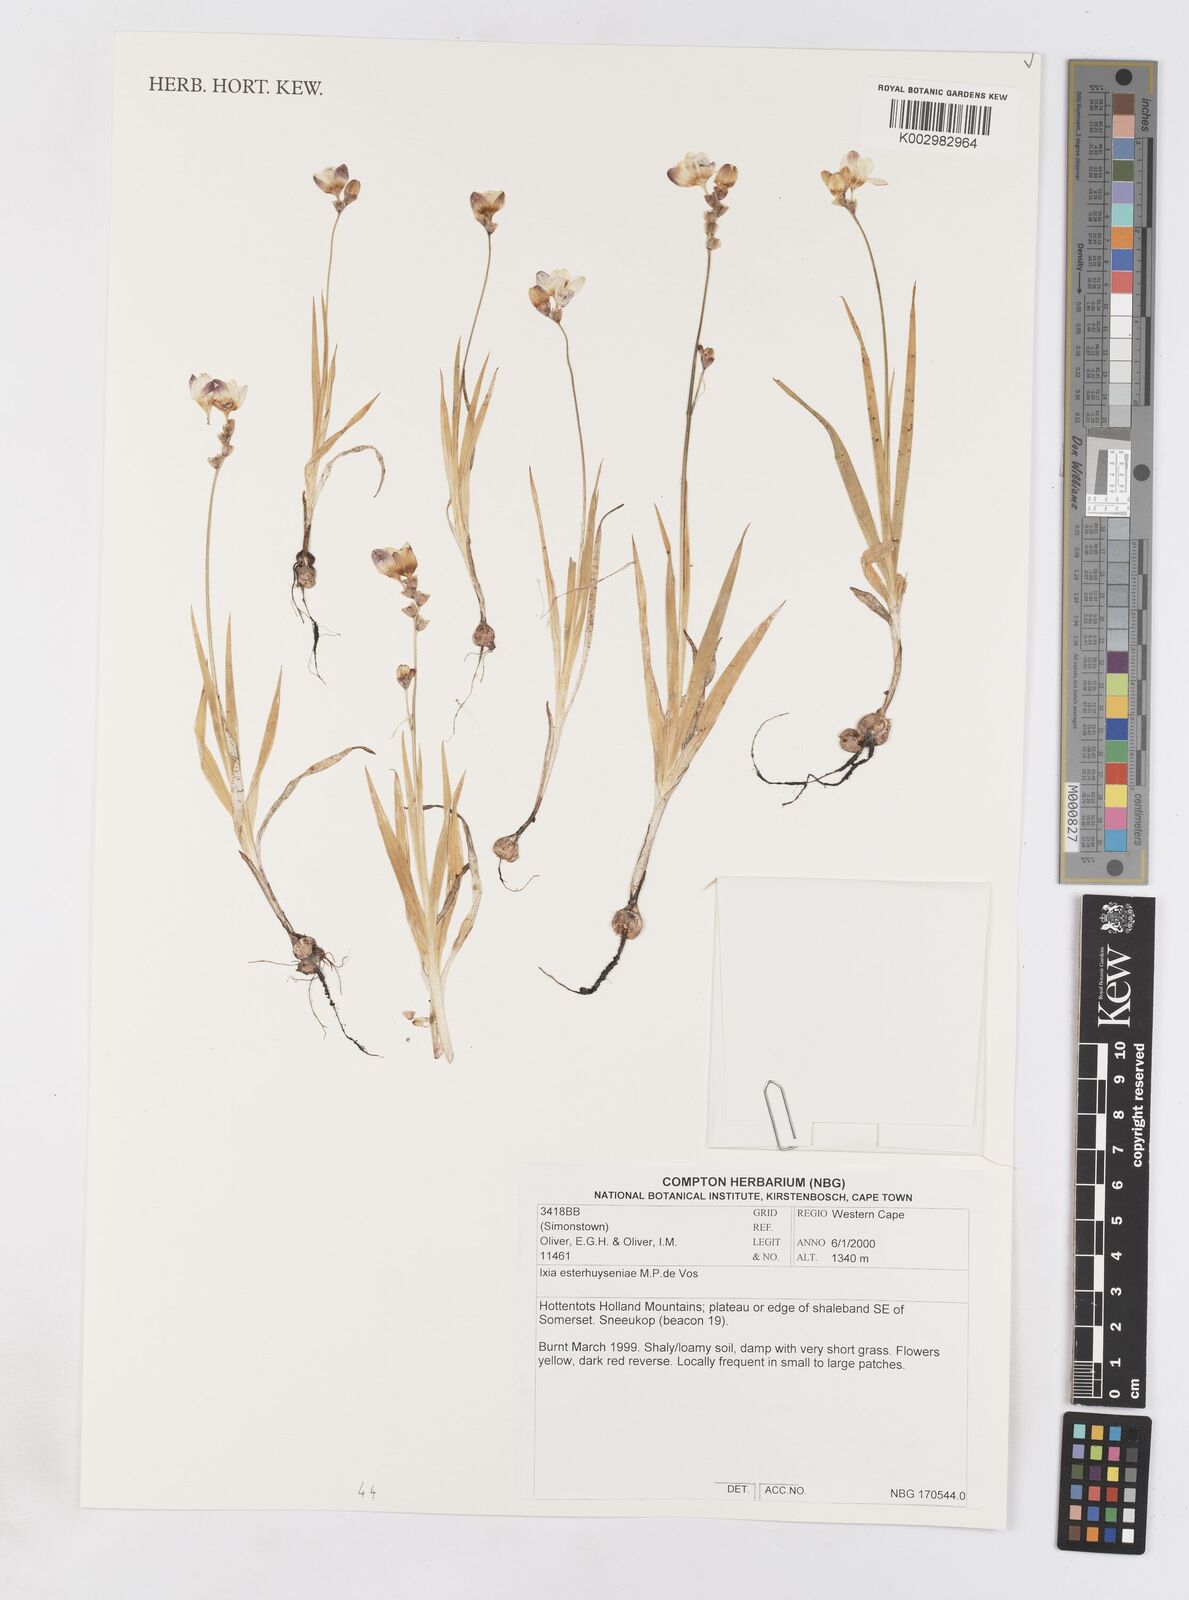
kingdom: Plantae
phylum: Tracheophyta
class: Liliopsida
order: Asparagales
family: Iridaceae
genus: Ixia
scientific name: Ixia esterhuyseniae
